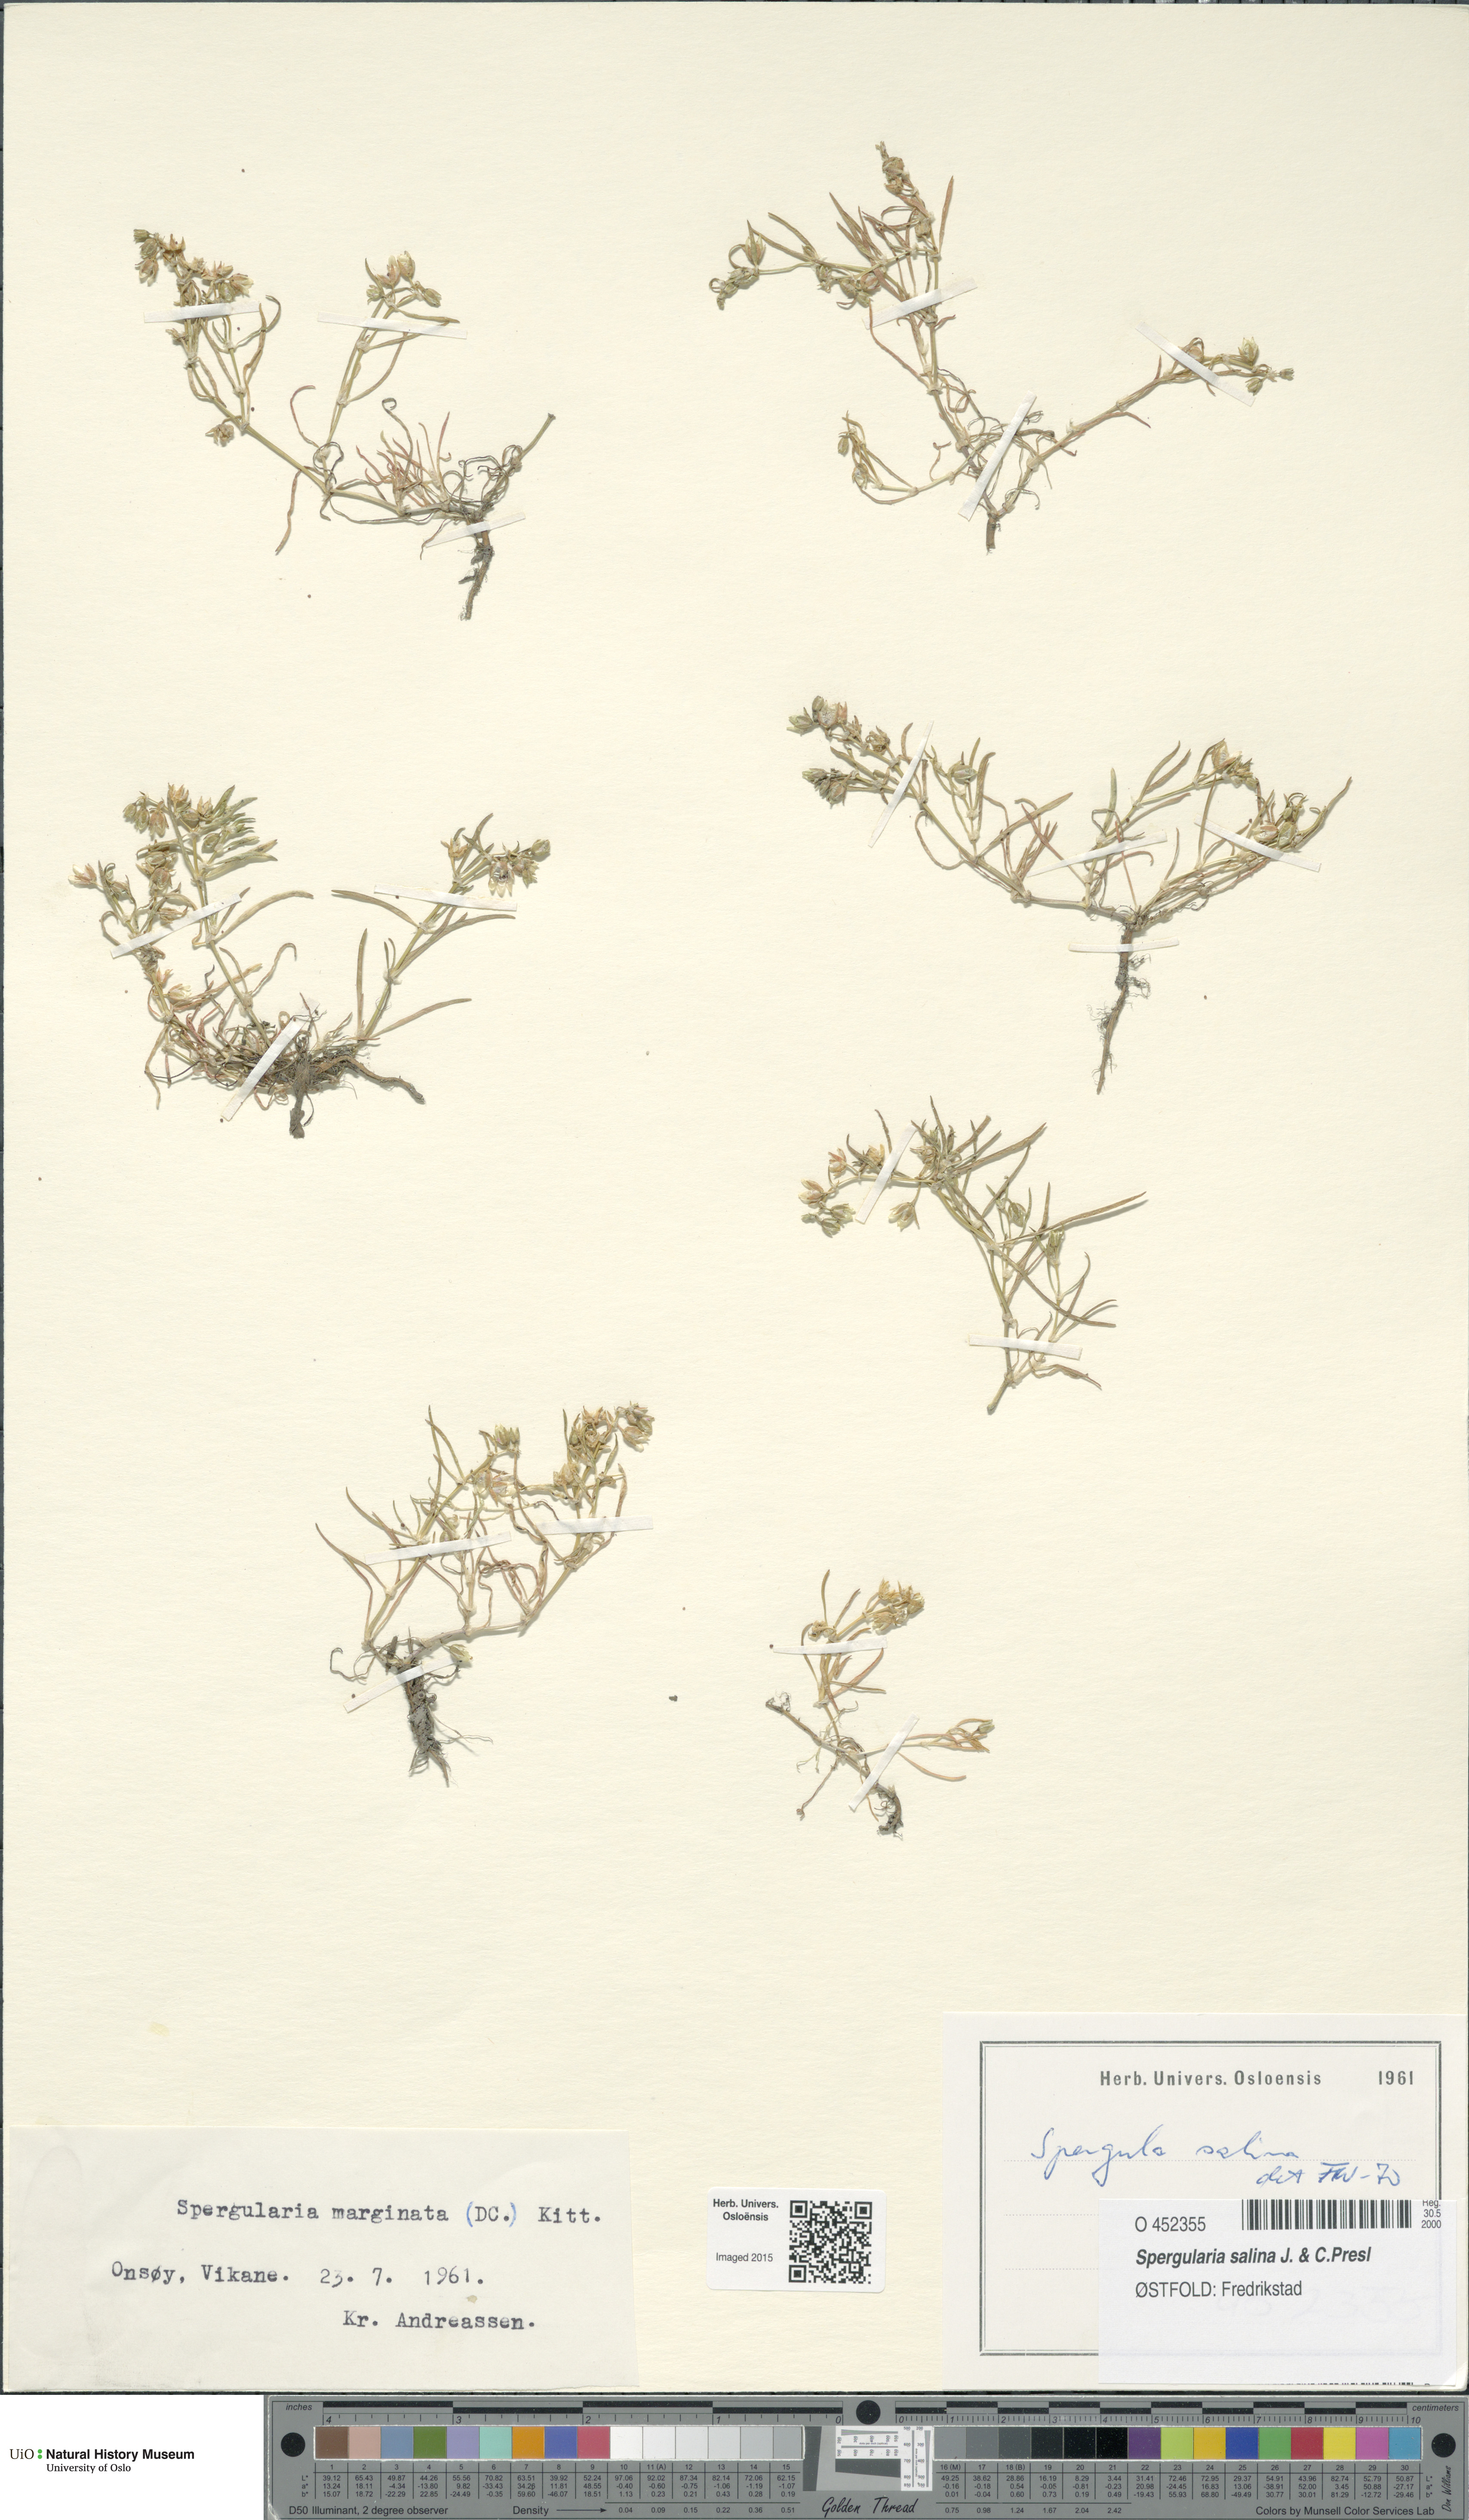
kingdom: Plantae
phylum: Tracheophyta
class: Magnoliopsida
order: Caryophyllales
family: Caryophyllaceae
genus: Spergularia
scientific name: Spergularia marina
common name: Lesser sea-spurrey
